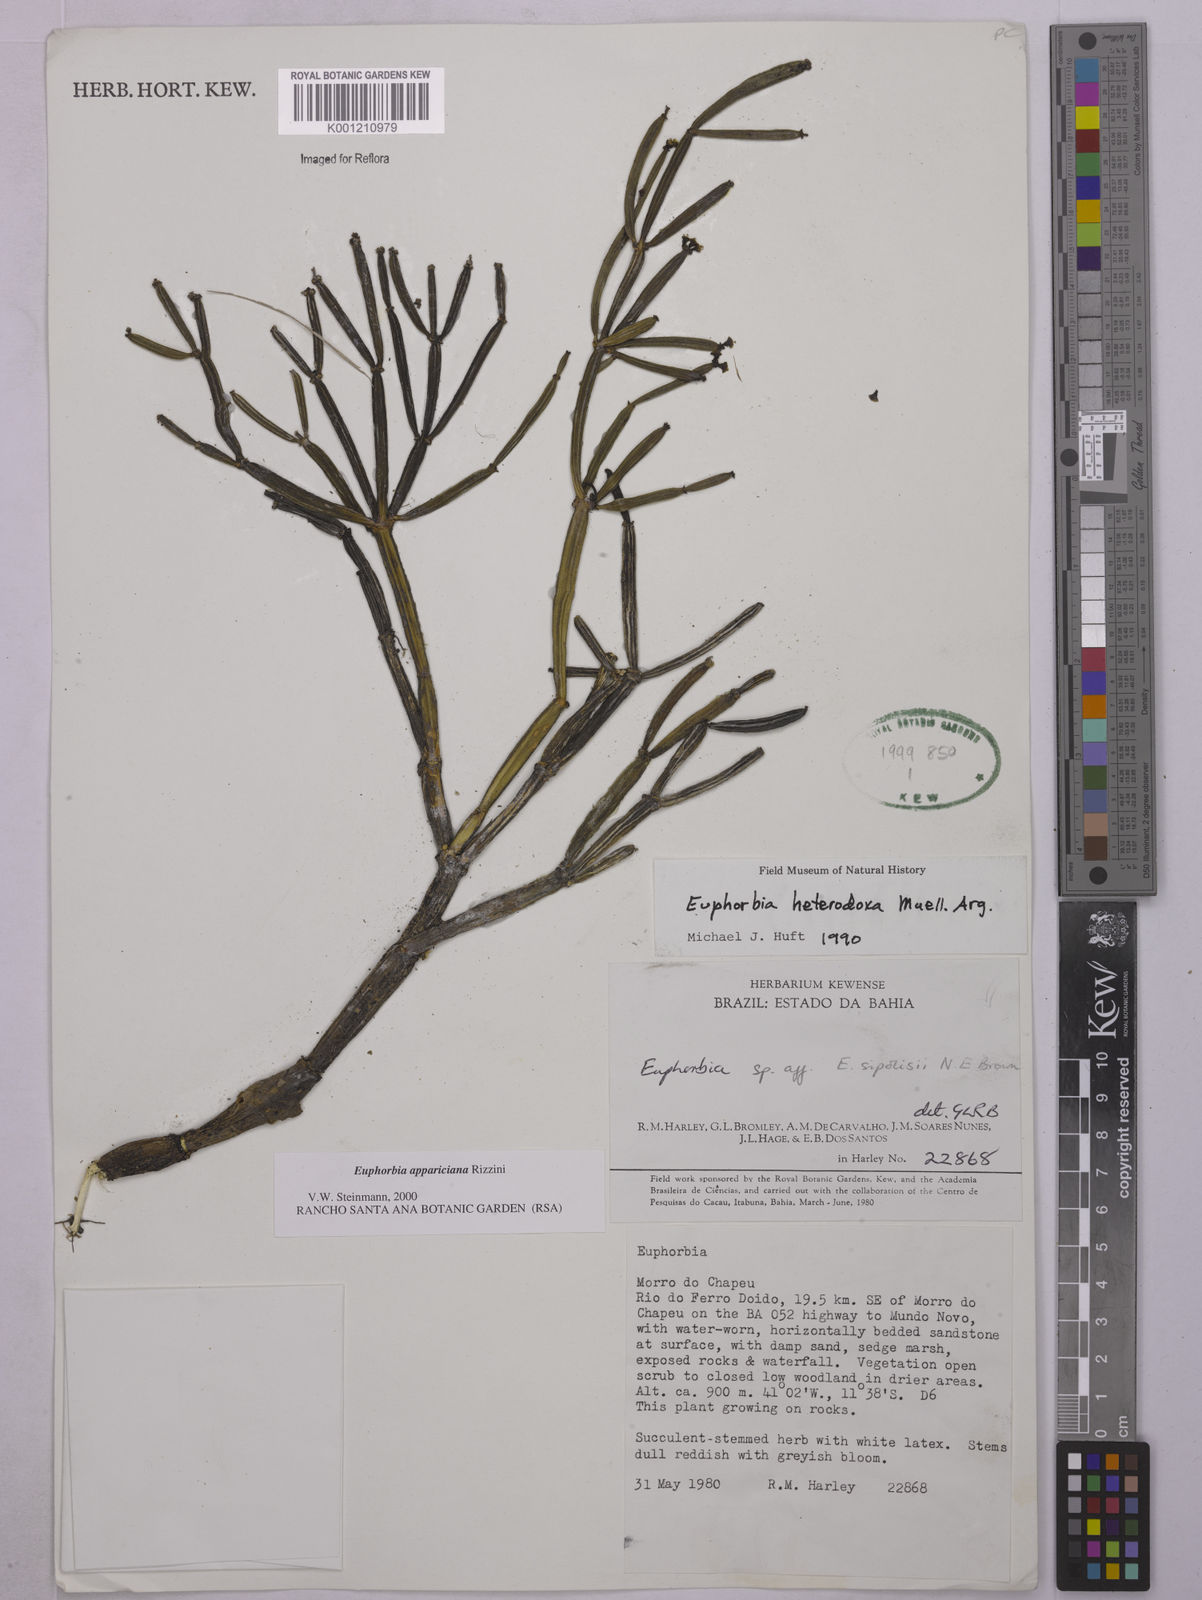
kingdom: Plantae
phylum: Tracheophyta
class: Magnoliopsida
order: Malpighiales
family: Euphorbiaceae
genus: Euphorbia
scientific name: Euphorbia appariciana
